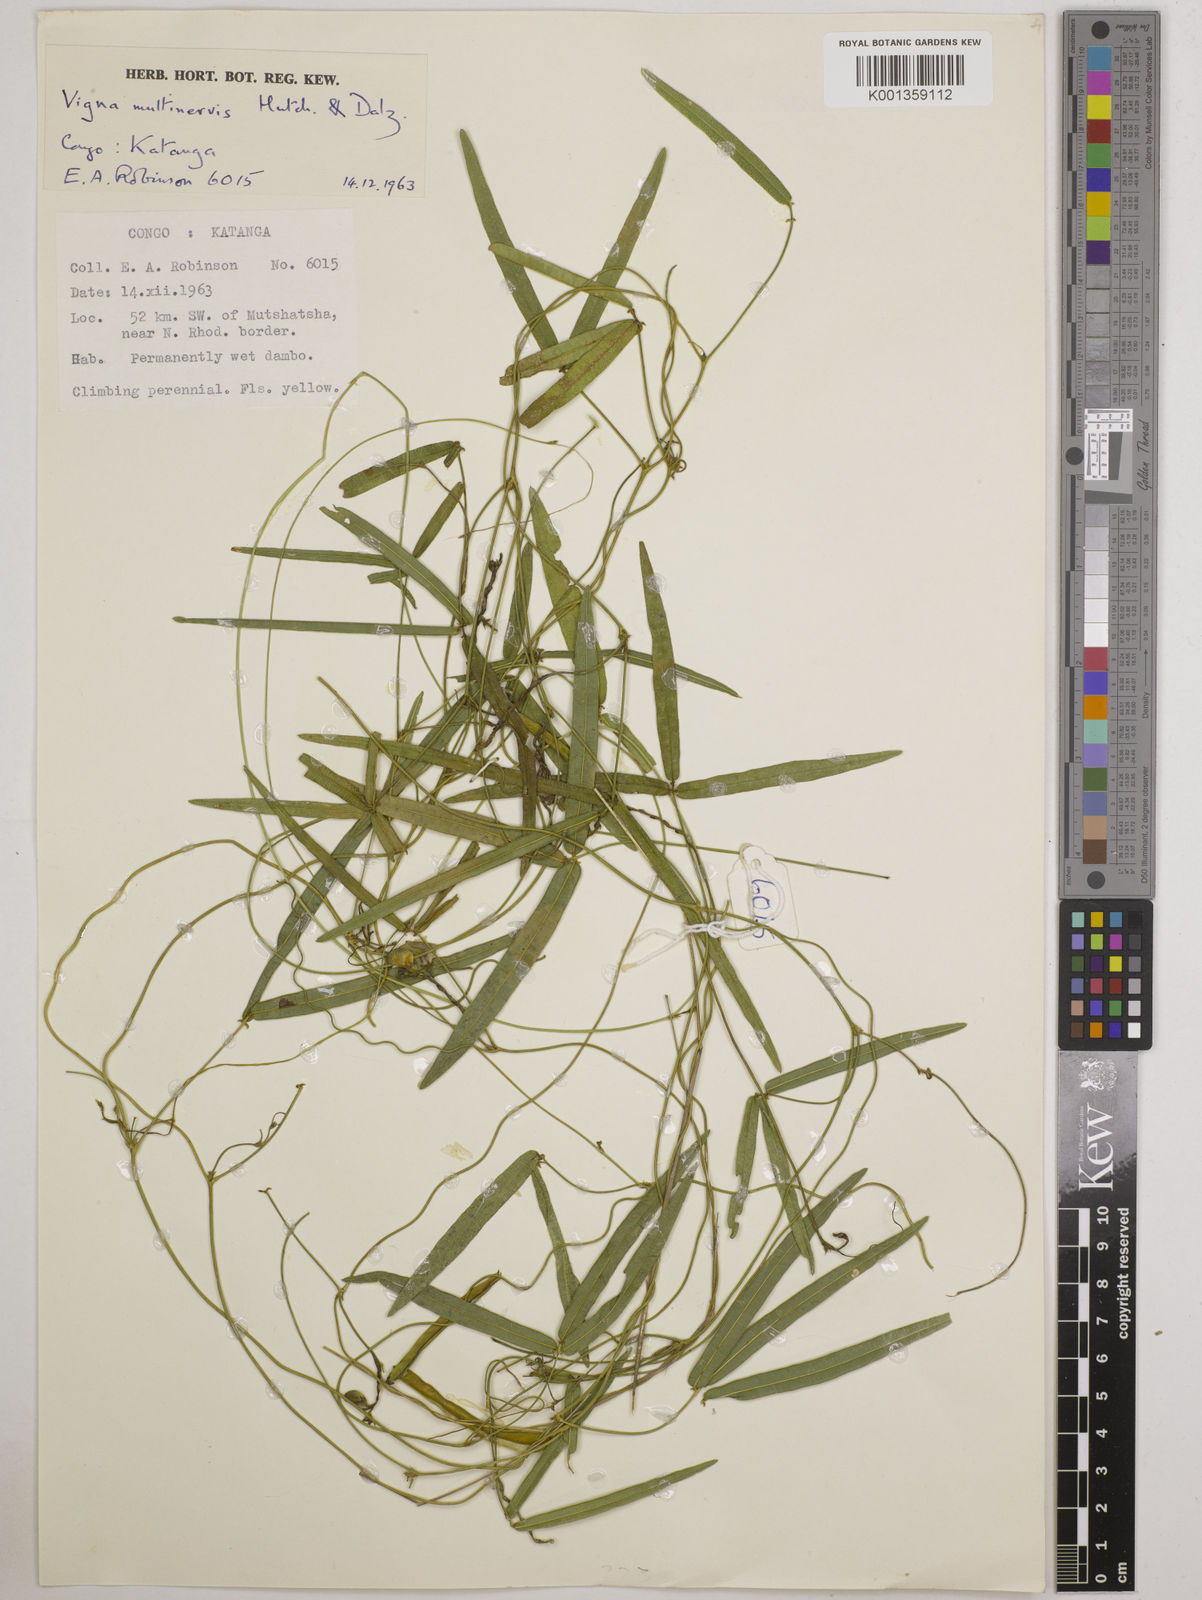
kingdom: Plantae
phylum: Tracheophyta
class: Magnoliopsida
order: Fabales
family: Fabaceae
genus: Vigna
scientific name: Vigna multinervis
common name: Fula-pulaar
